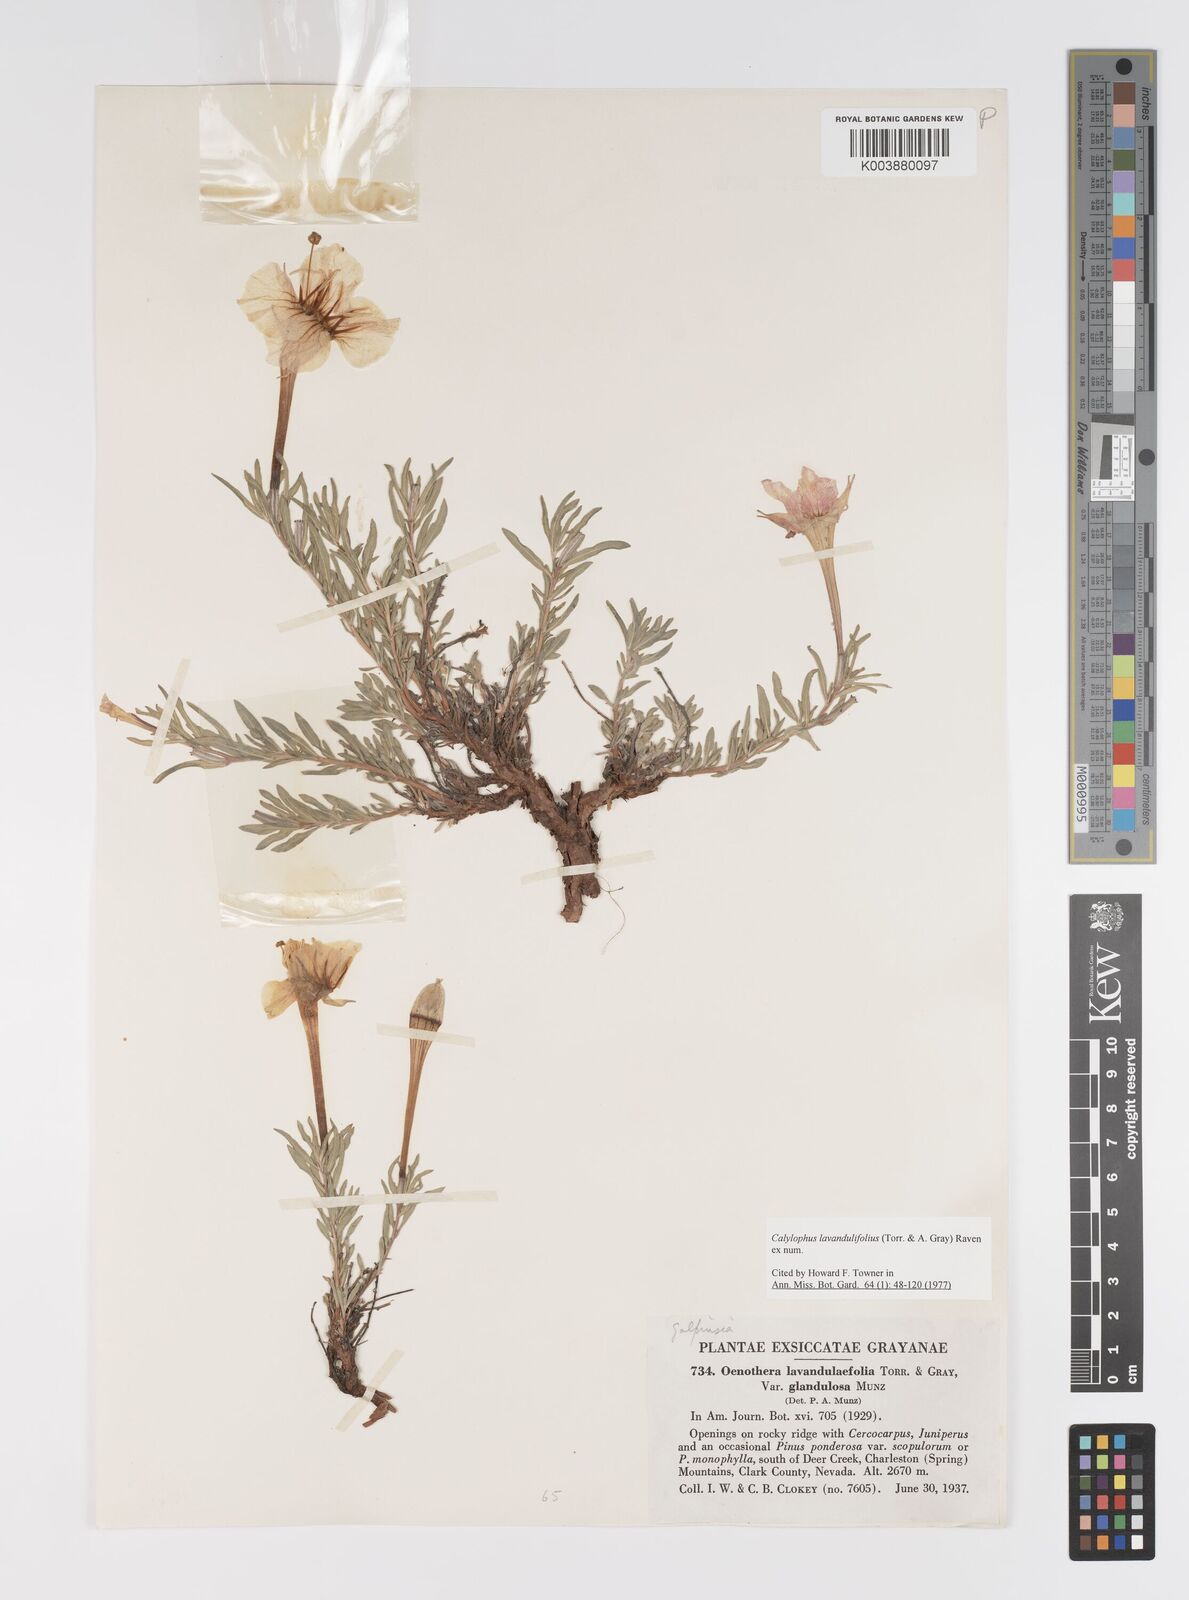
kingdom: Plantae
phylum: Tracheophyta
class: Magnoliopsida
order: Myrtales
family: Onagraceae
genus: Oenothera
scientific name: Oenothera lavandulifolia
